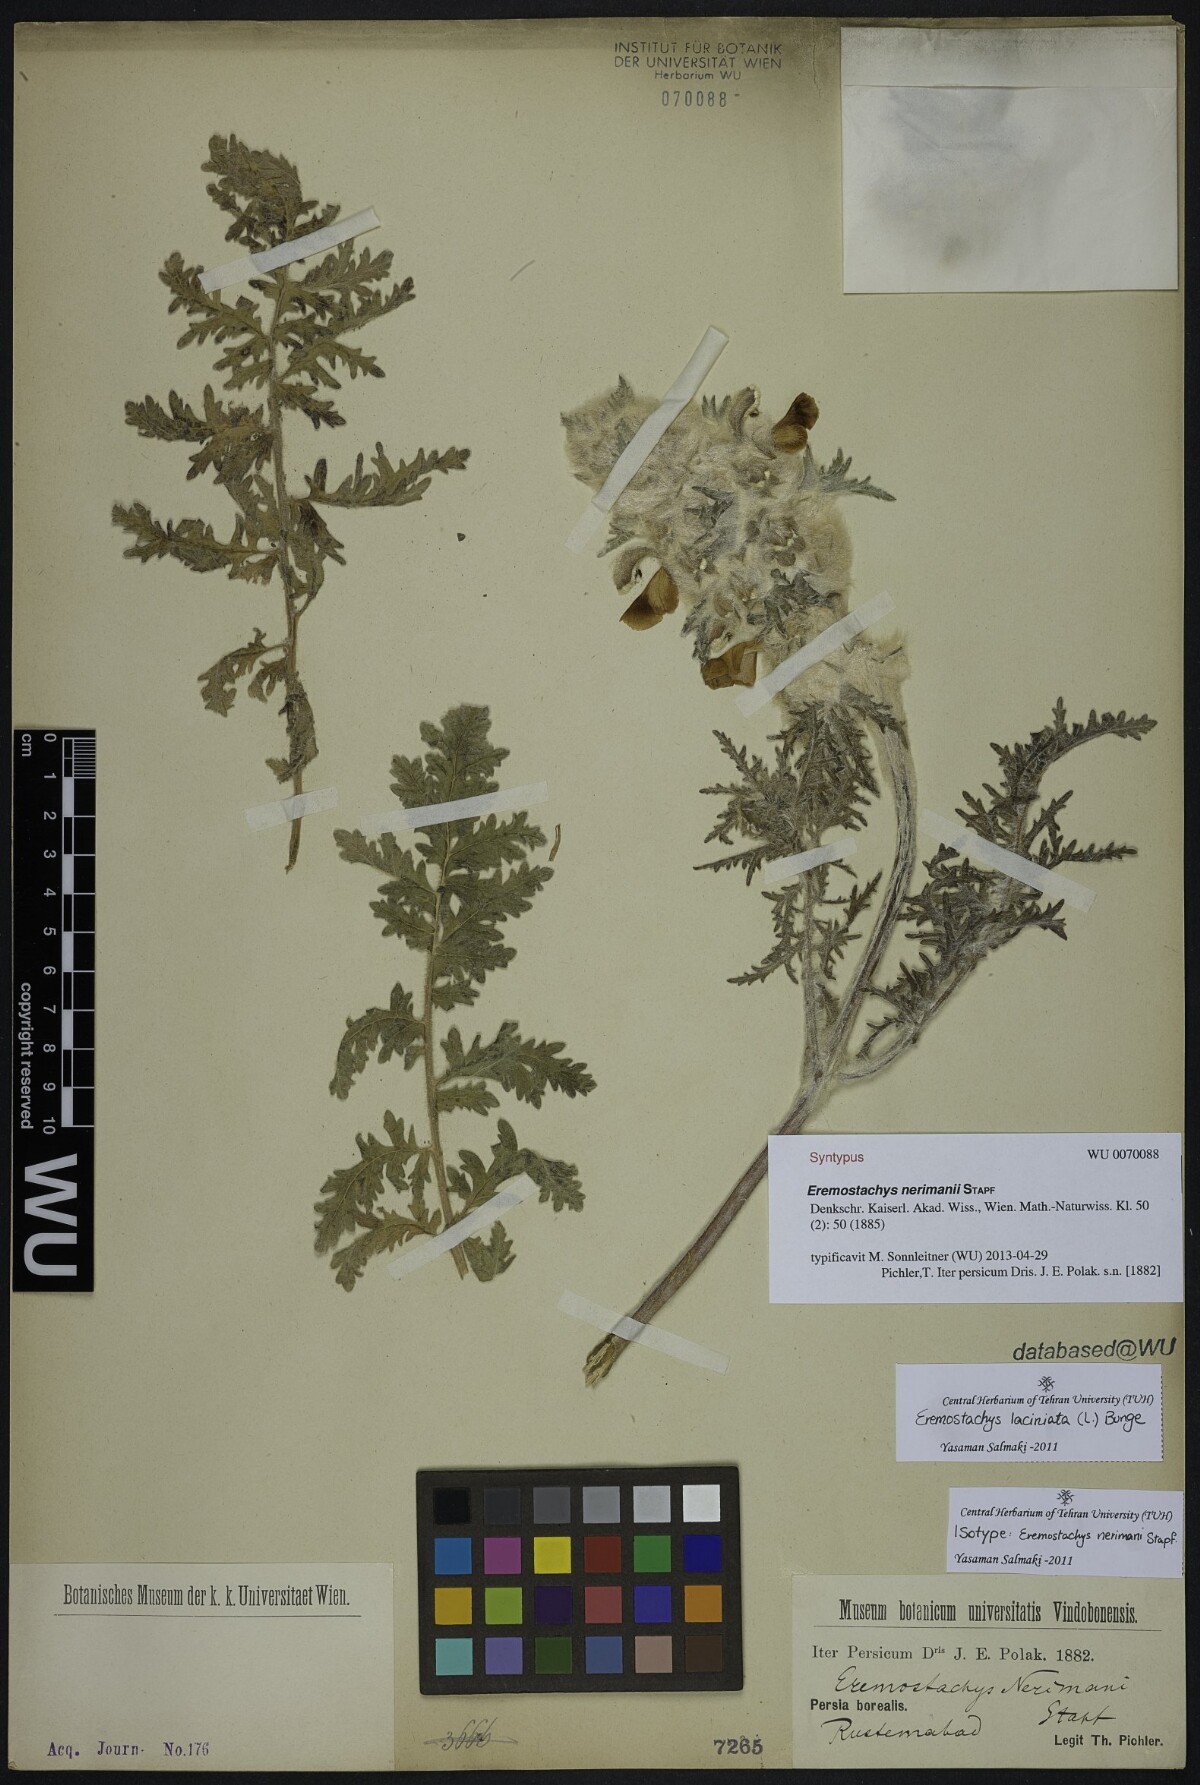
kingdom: Plantae
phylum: Tracheophyta
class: Magnoliopsida
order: Lamiales
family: Lamiaceae
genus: Phlomoides
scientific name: Phlomoides laciniata
